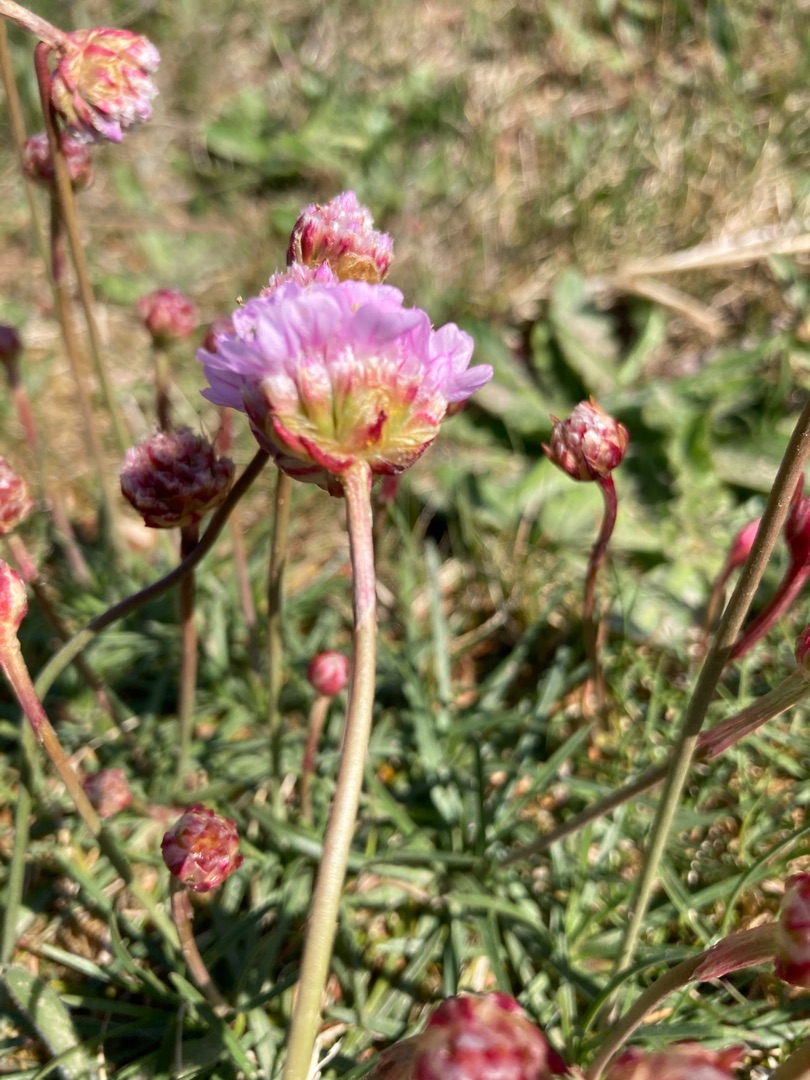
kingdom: Plantae
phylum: Tracheophyta
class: Magnoliopsida
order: Caryophyllales
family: Plumbaginaceae
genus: Armeria
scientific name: Armeria maritima
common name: Engelskgræs
